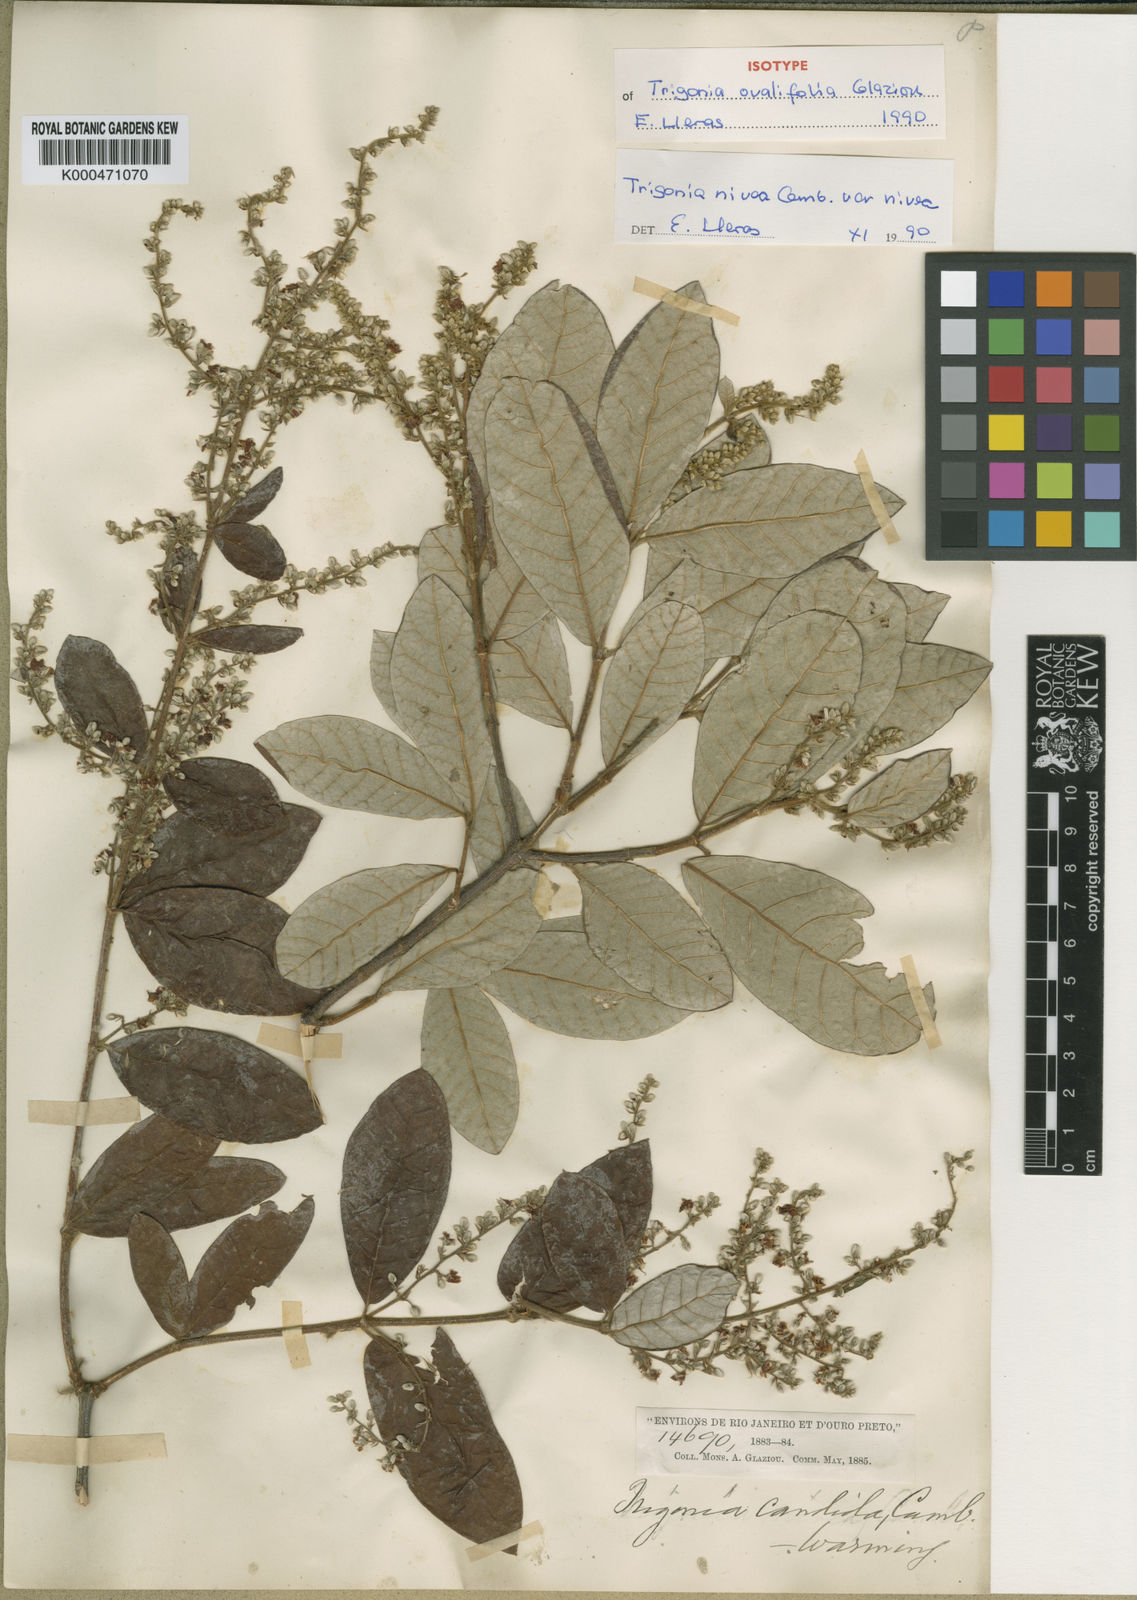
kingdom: Plantae
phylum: Tracheophyta
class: Magnoliopsida
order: Malpighiales
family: Trigoniaceae
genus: Trigonia
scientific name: Trigonia
